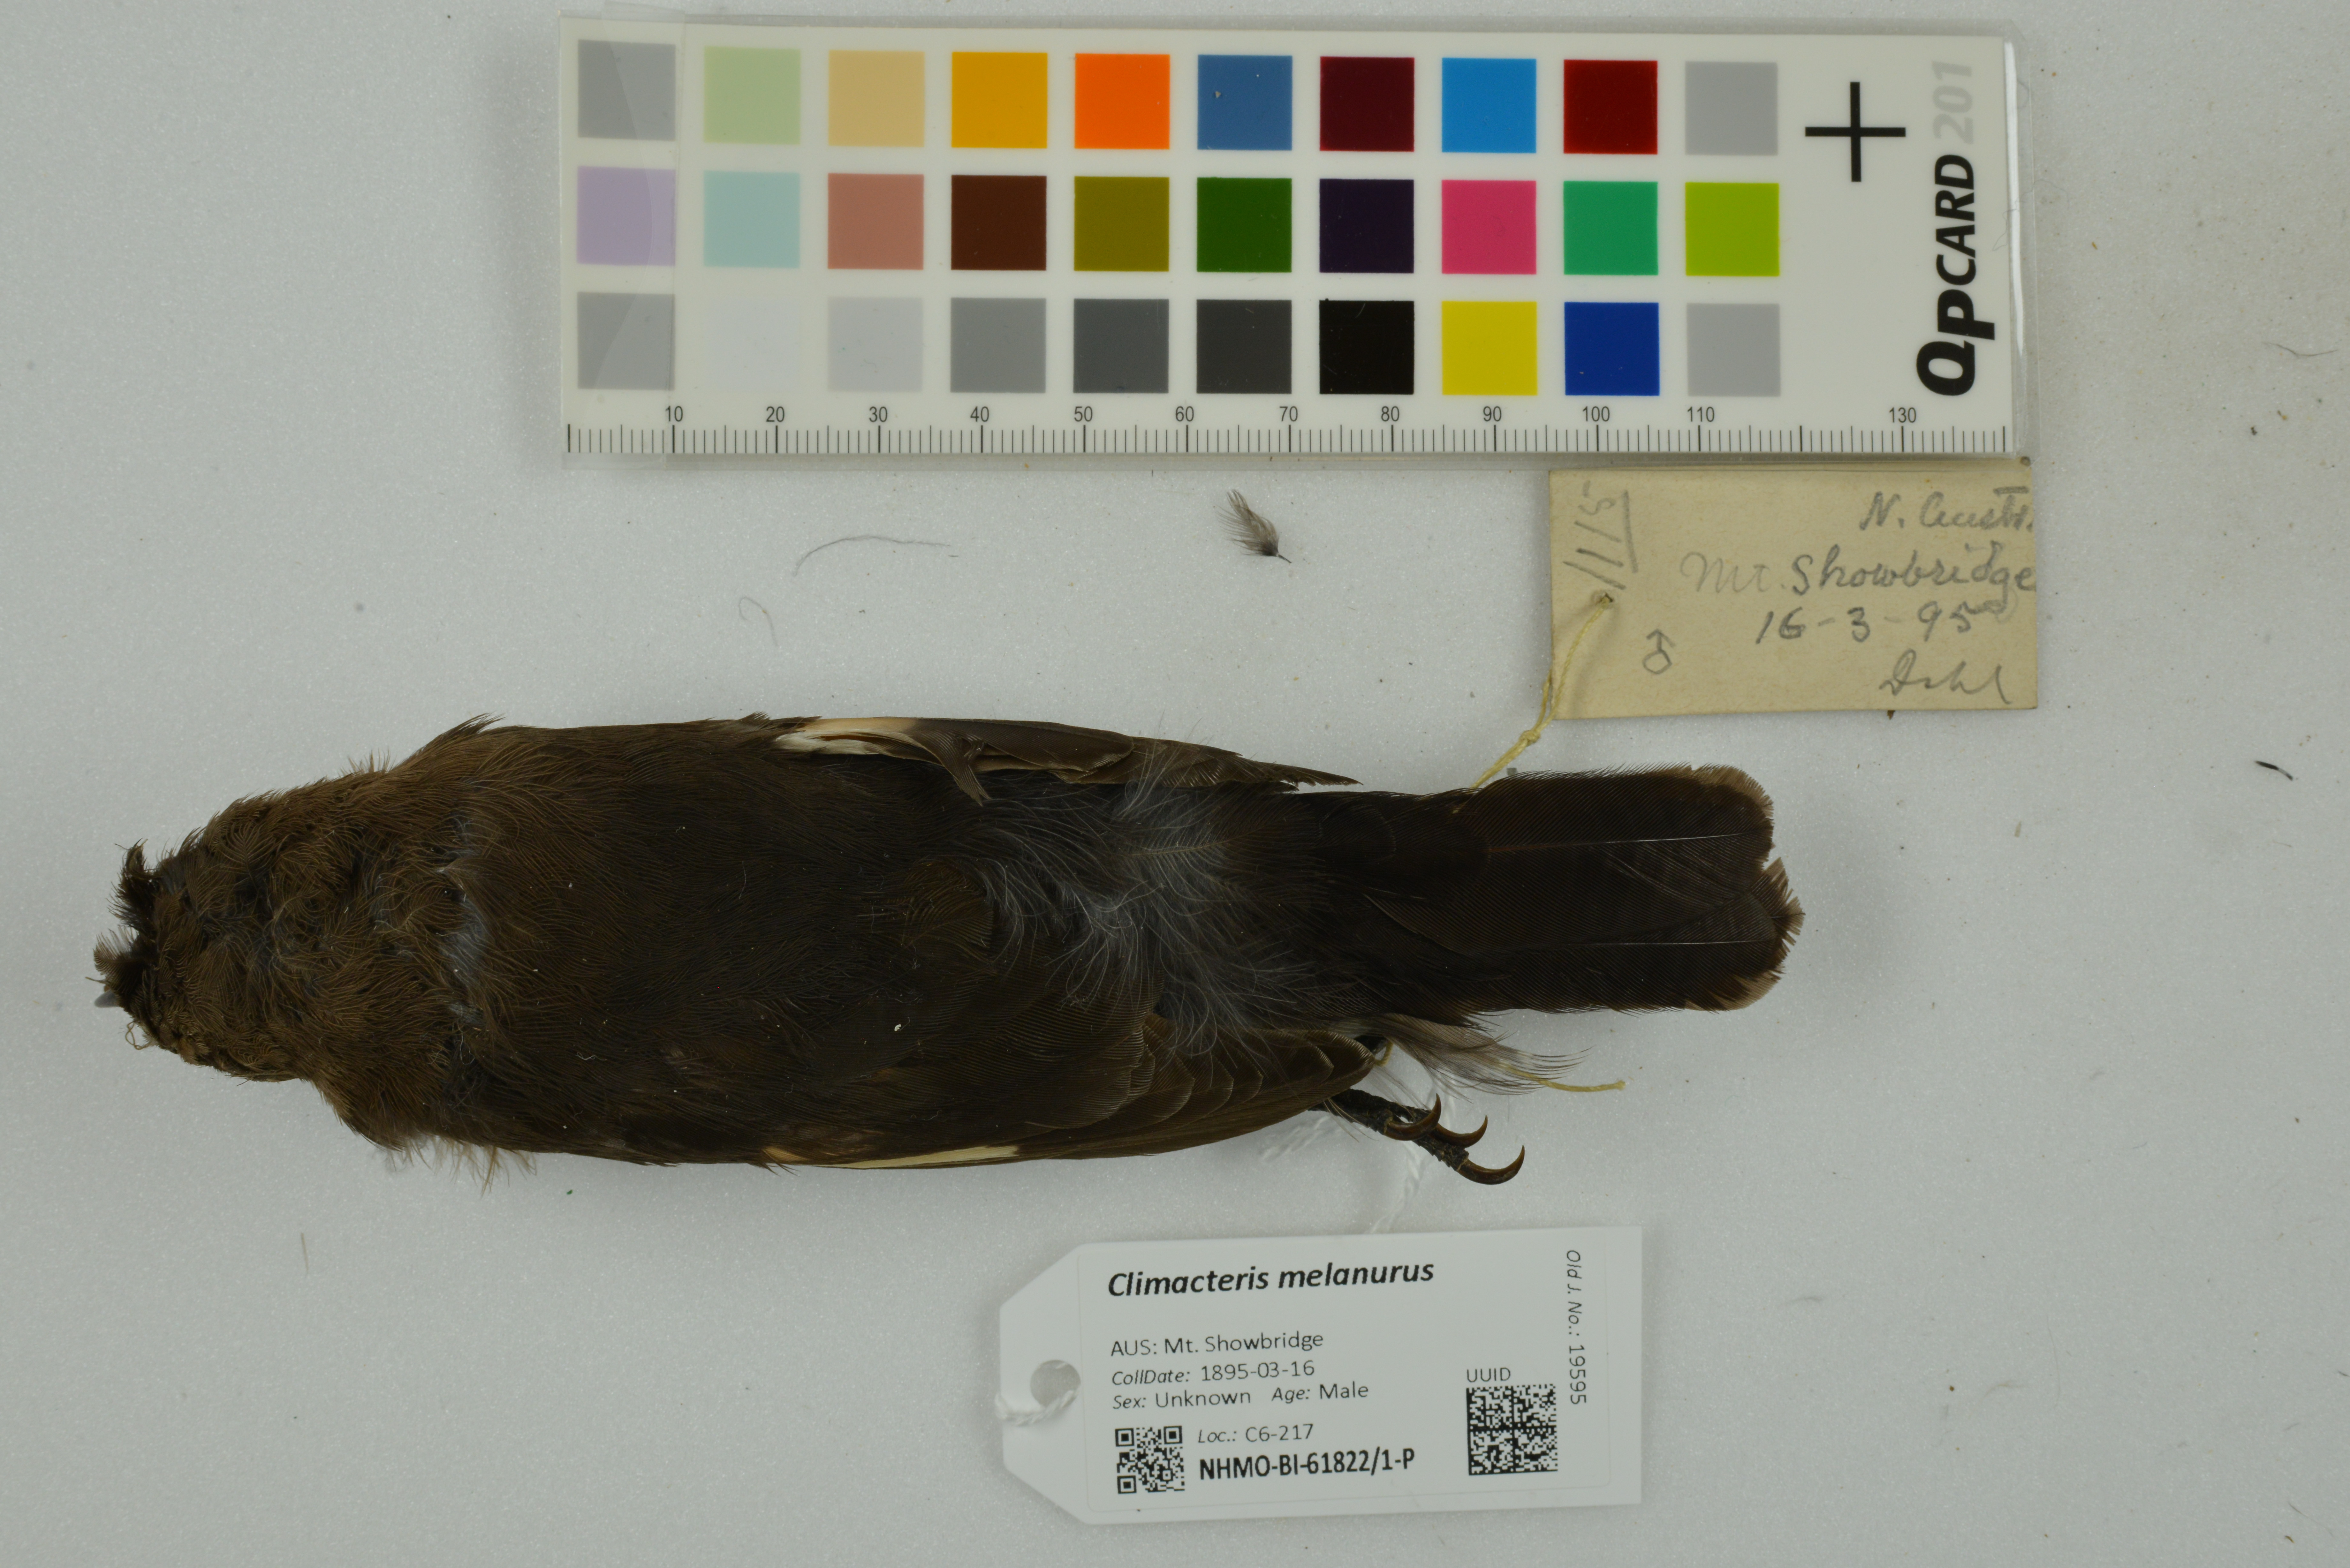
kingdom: Animalia
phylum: Chordata
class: Aves
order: Passeriformes
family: Climacteridae
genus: Climacteris
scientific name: Climacteris melanurus
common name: Black-tailed treecreeper
